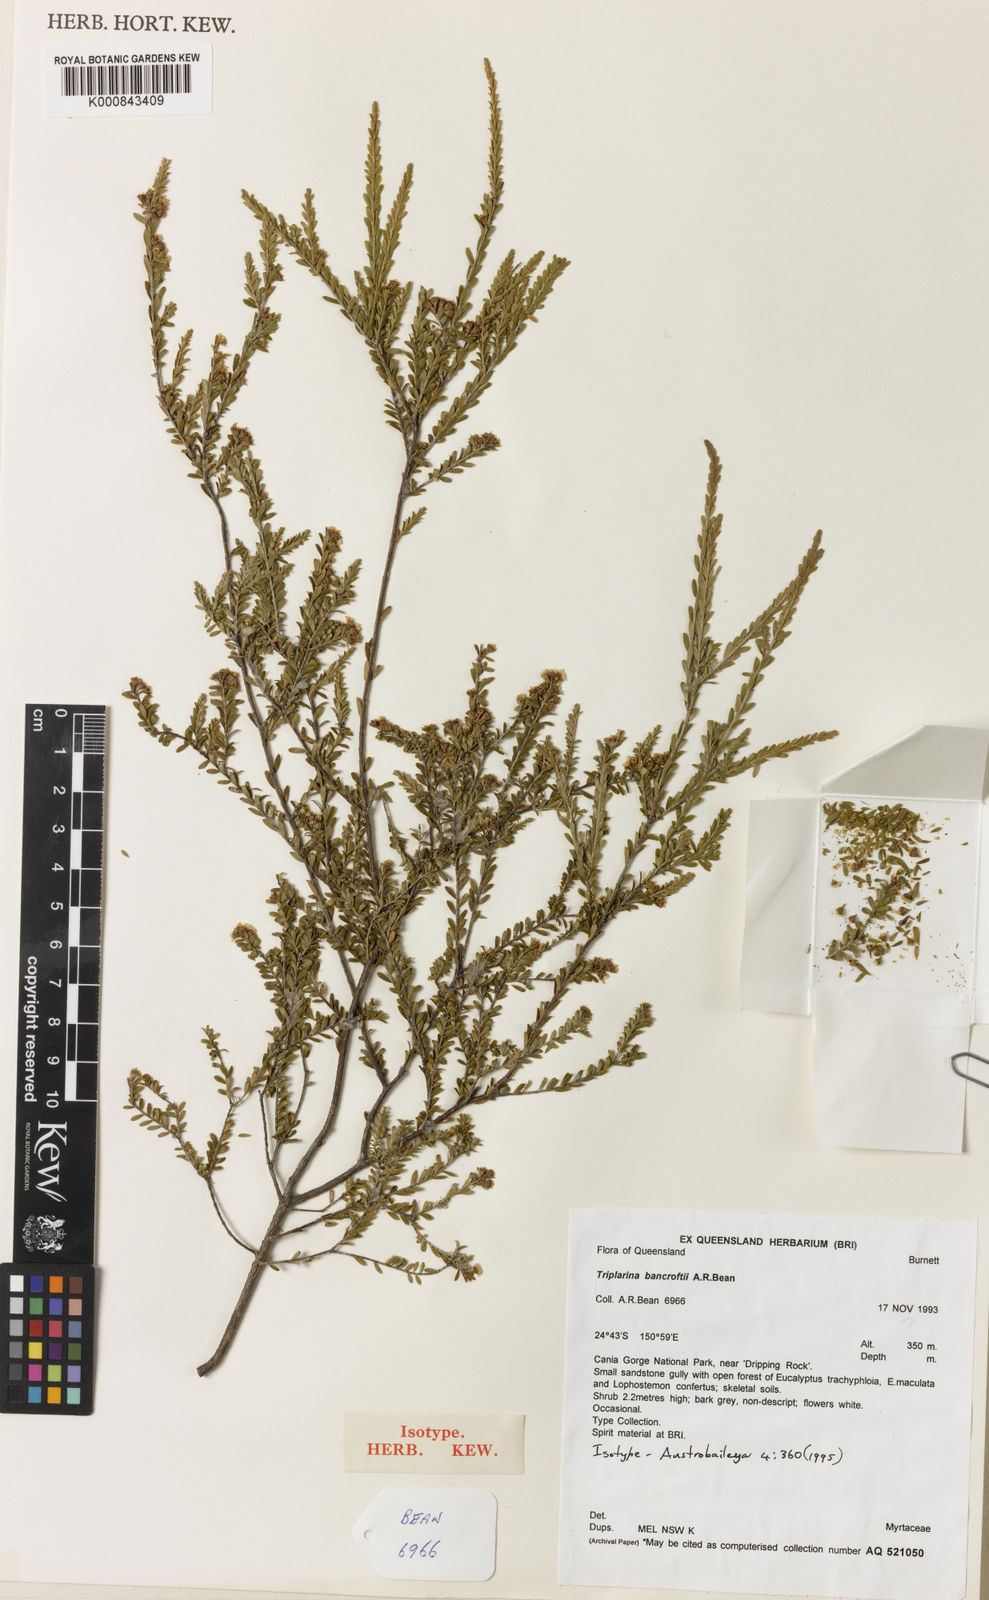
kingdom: Plantae
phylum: Tracheophyta
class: Magnoliopsida
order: Myrtales
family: Myrtaceae
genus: Triplarina
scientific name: Triplarina bancroftii
